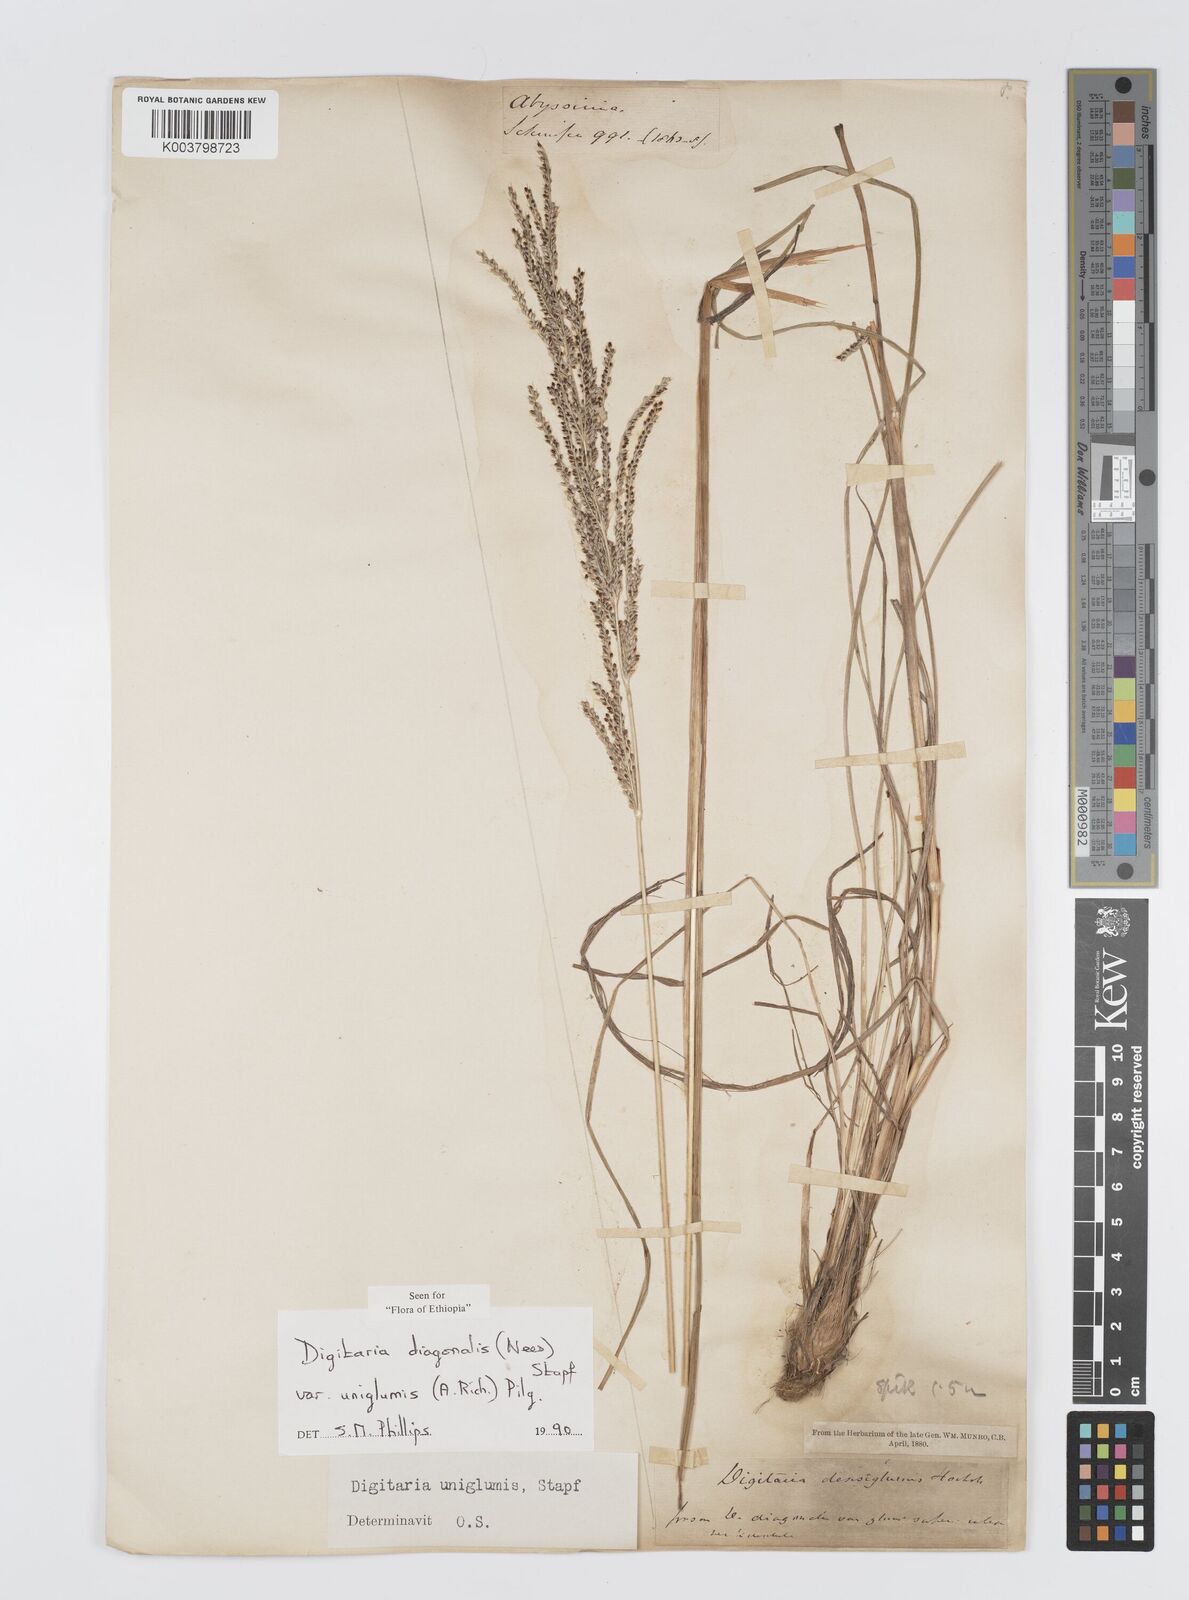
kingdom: Plantae
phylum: Tracheophyta
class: Liliopsida
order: Poales
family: Poaceae
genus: Digitaria
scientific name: Digitaria diagonalis
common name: Brown-seed finger grass
